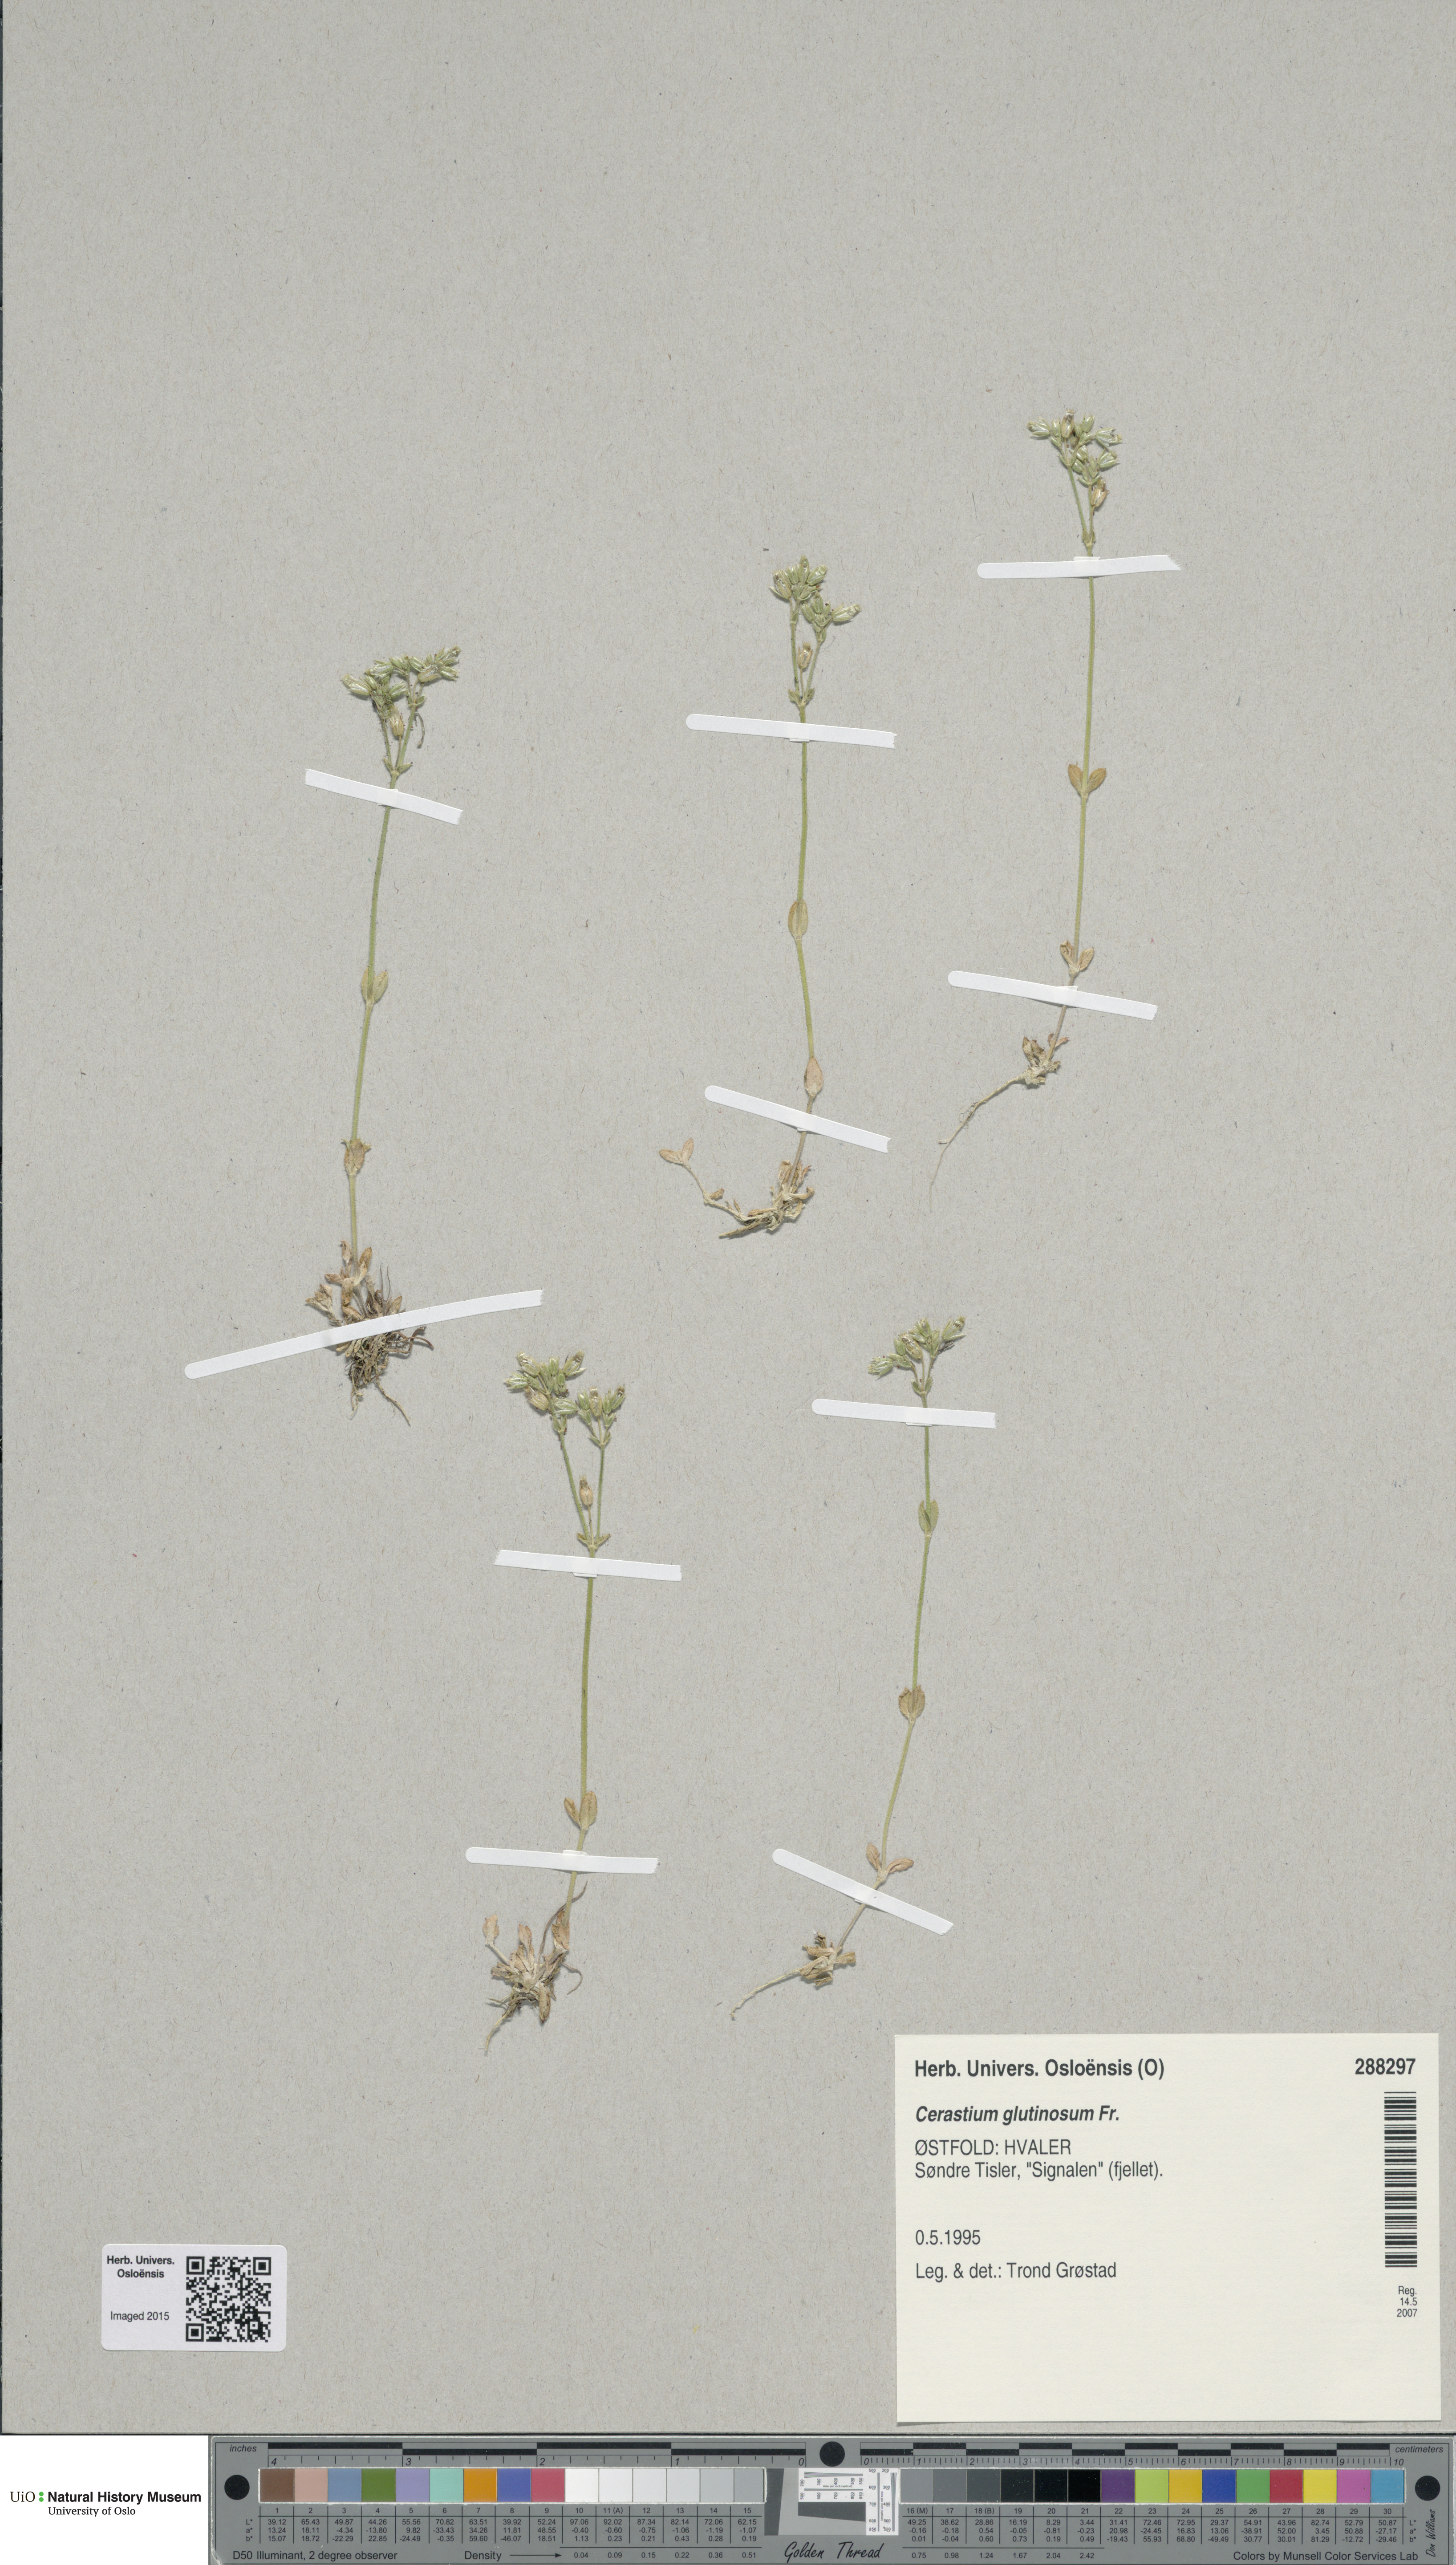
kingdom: Plantae
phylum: Tracheophyta
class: Magnoliopsida
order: Caryophyllales
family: Caryophyllaceae
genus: Cerastium
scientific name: Cerastium glutinosum
